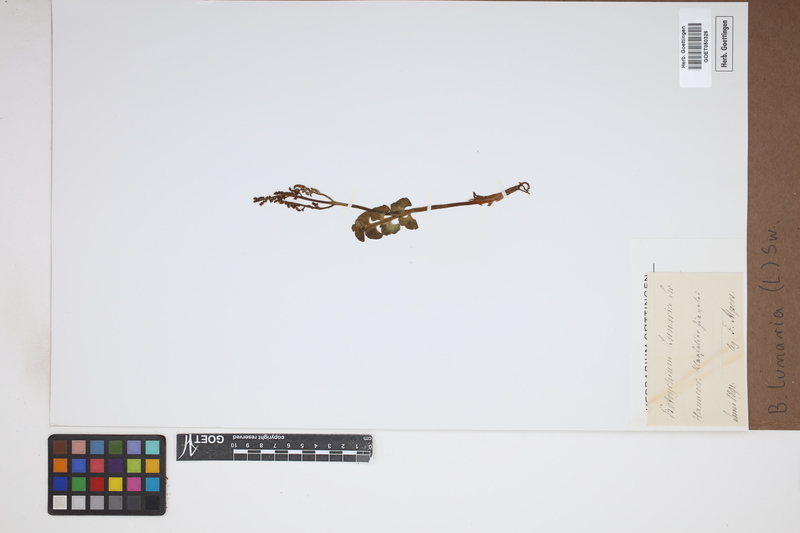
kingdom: Plantae
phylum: Tracheophyta
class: Polypodiopsida
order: Ophioglossales
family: Ophioglossaceae
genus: Botrychium
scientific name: Botrychium lunaria
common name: Moonwort
